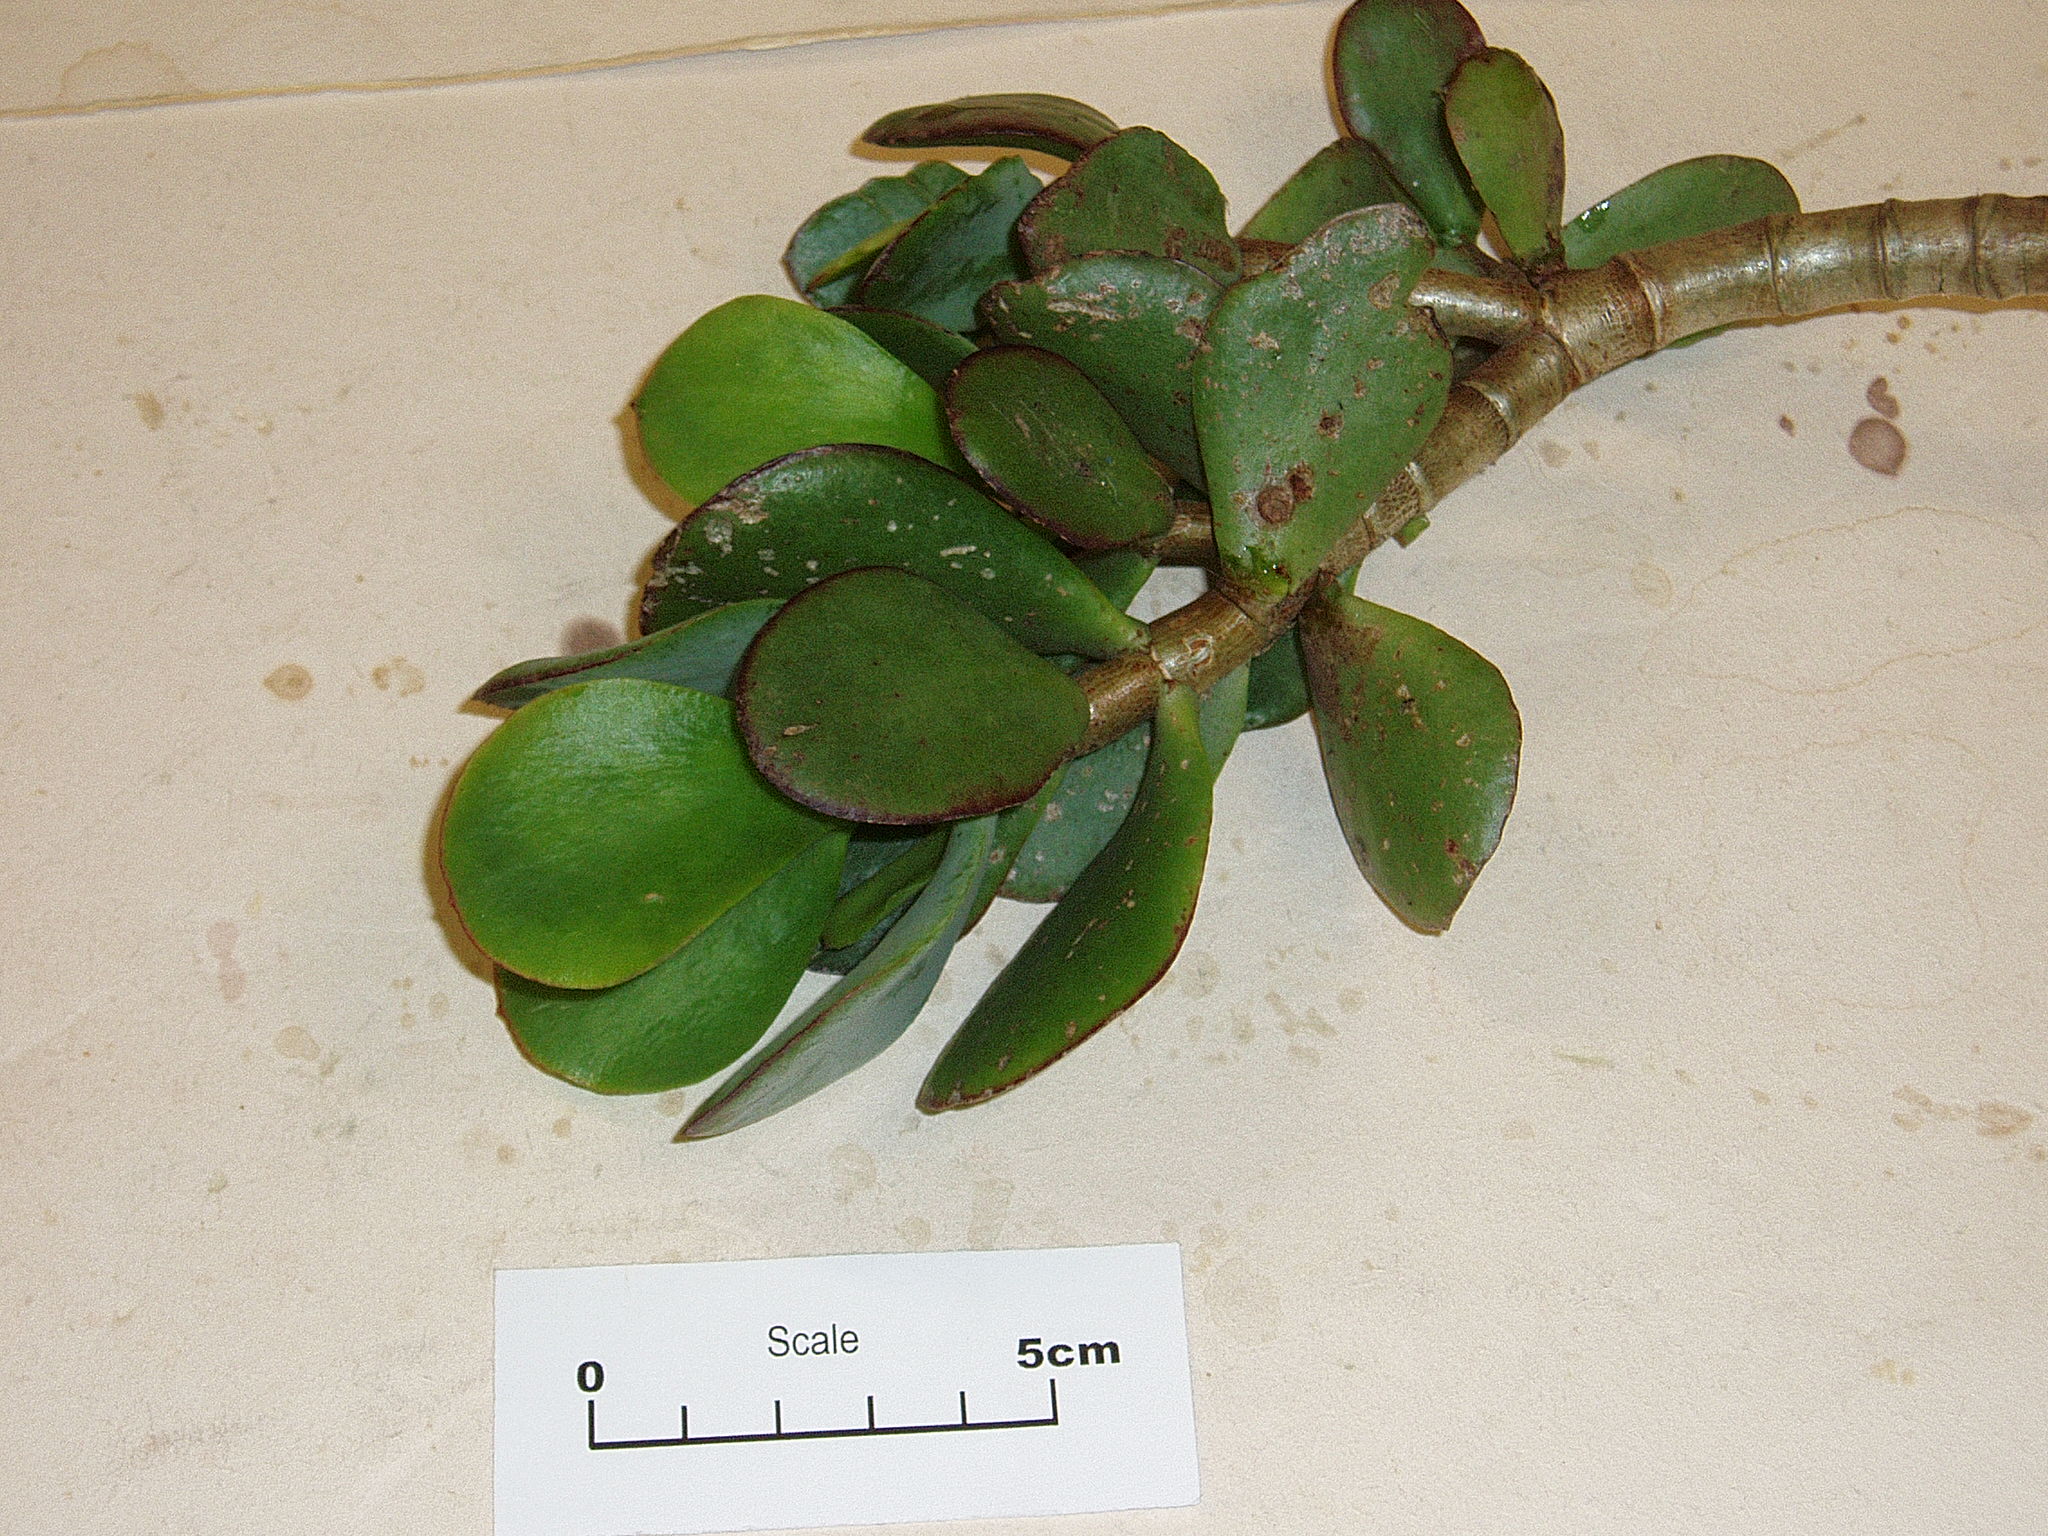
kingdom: Plantae
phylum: Tracheophyta
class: Magnoliopsida
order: Saxifragales
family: Crassulaceae
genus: Crassula
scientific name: Crassula arborescens
